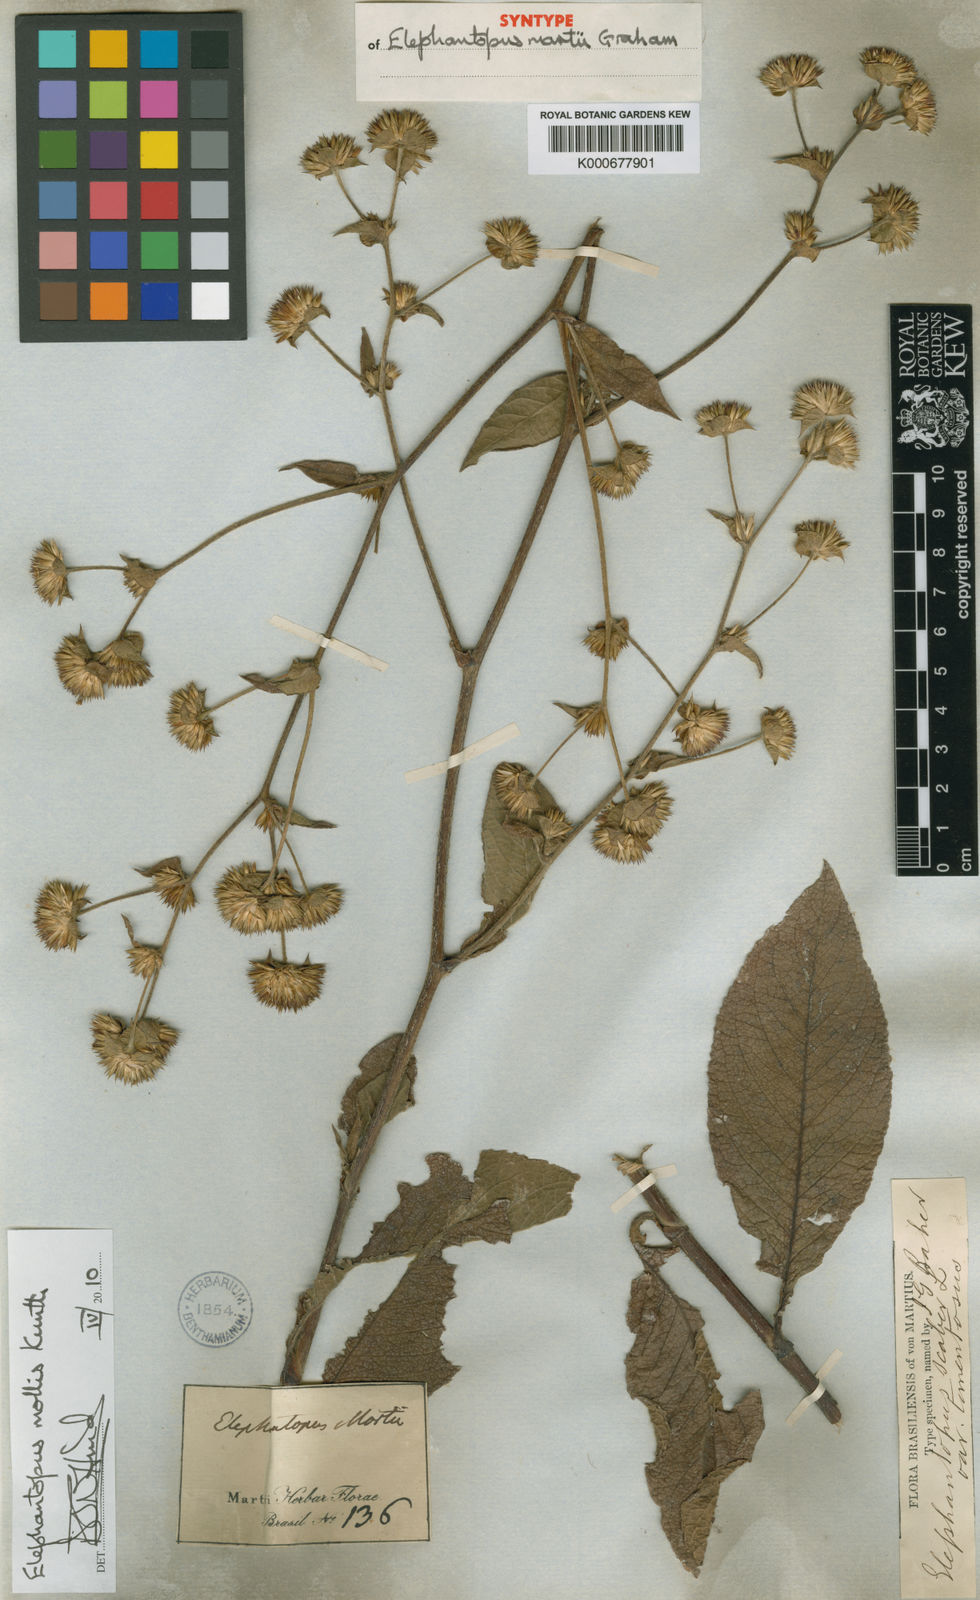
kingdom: Plantae
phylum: Tracheophyta
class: Magnoliopsida
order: Asterales
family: Asteraceae
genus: Elephantopus
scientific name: Elephantopus mollis
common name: Soft elephantsfoot
